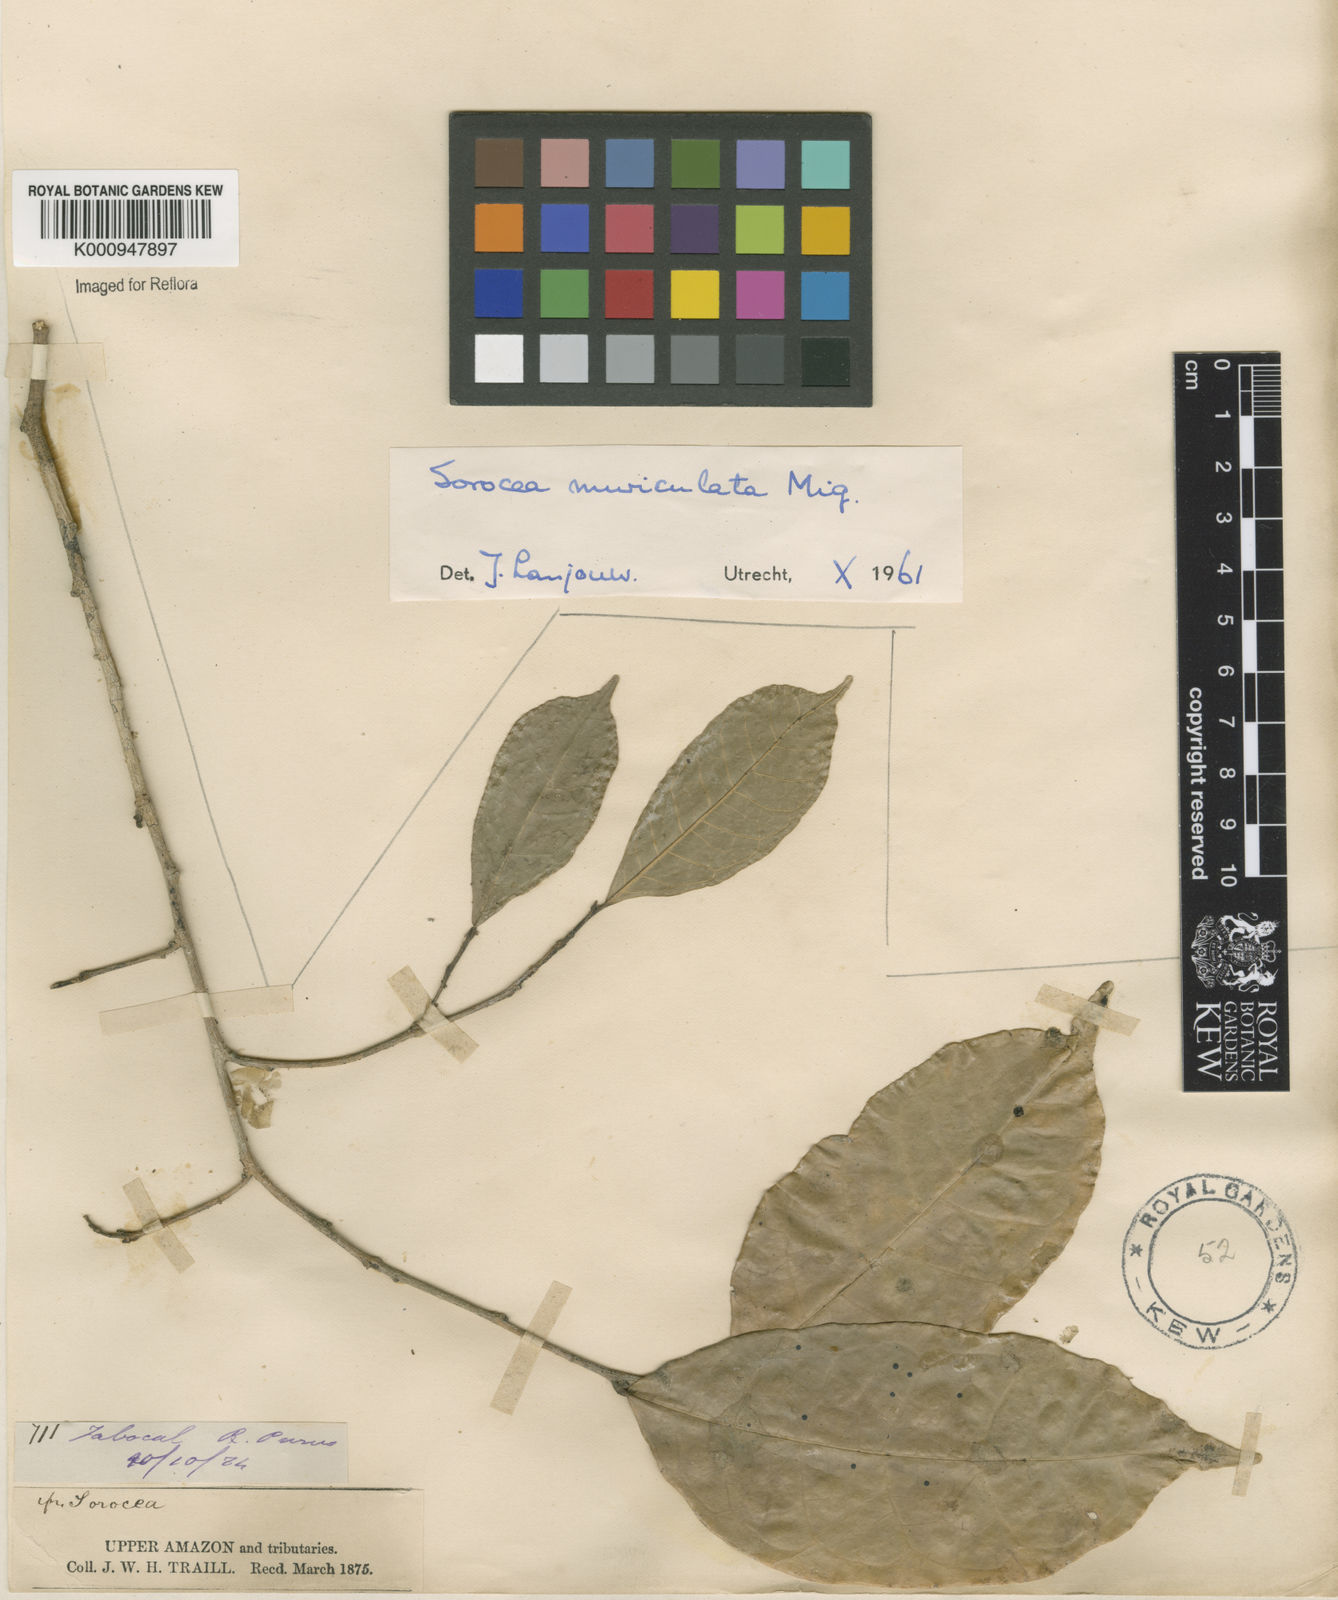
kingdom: Plantae
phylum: Tracheophyta
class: Magnoliopsida
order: Rosales
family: Moraceae
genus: Sorocea
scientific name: Sorocea muriculata
